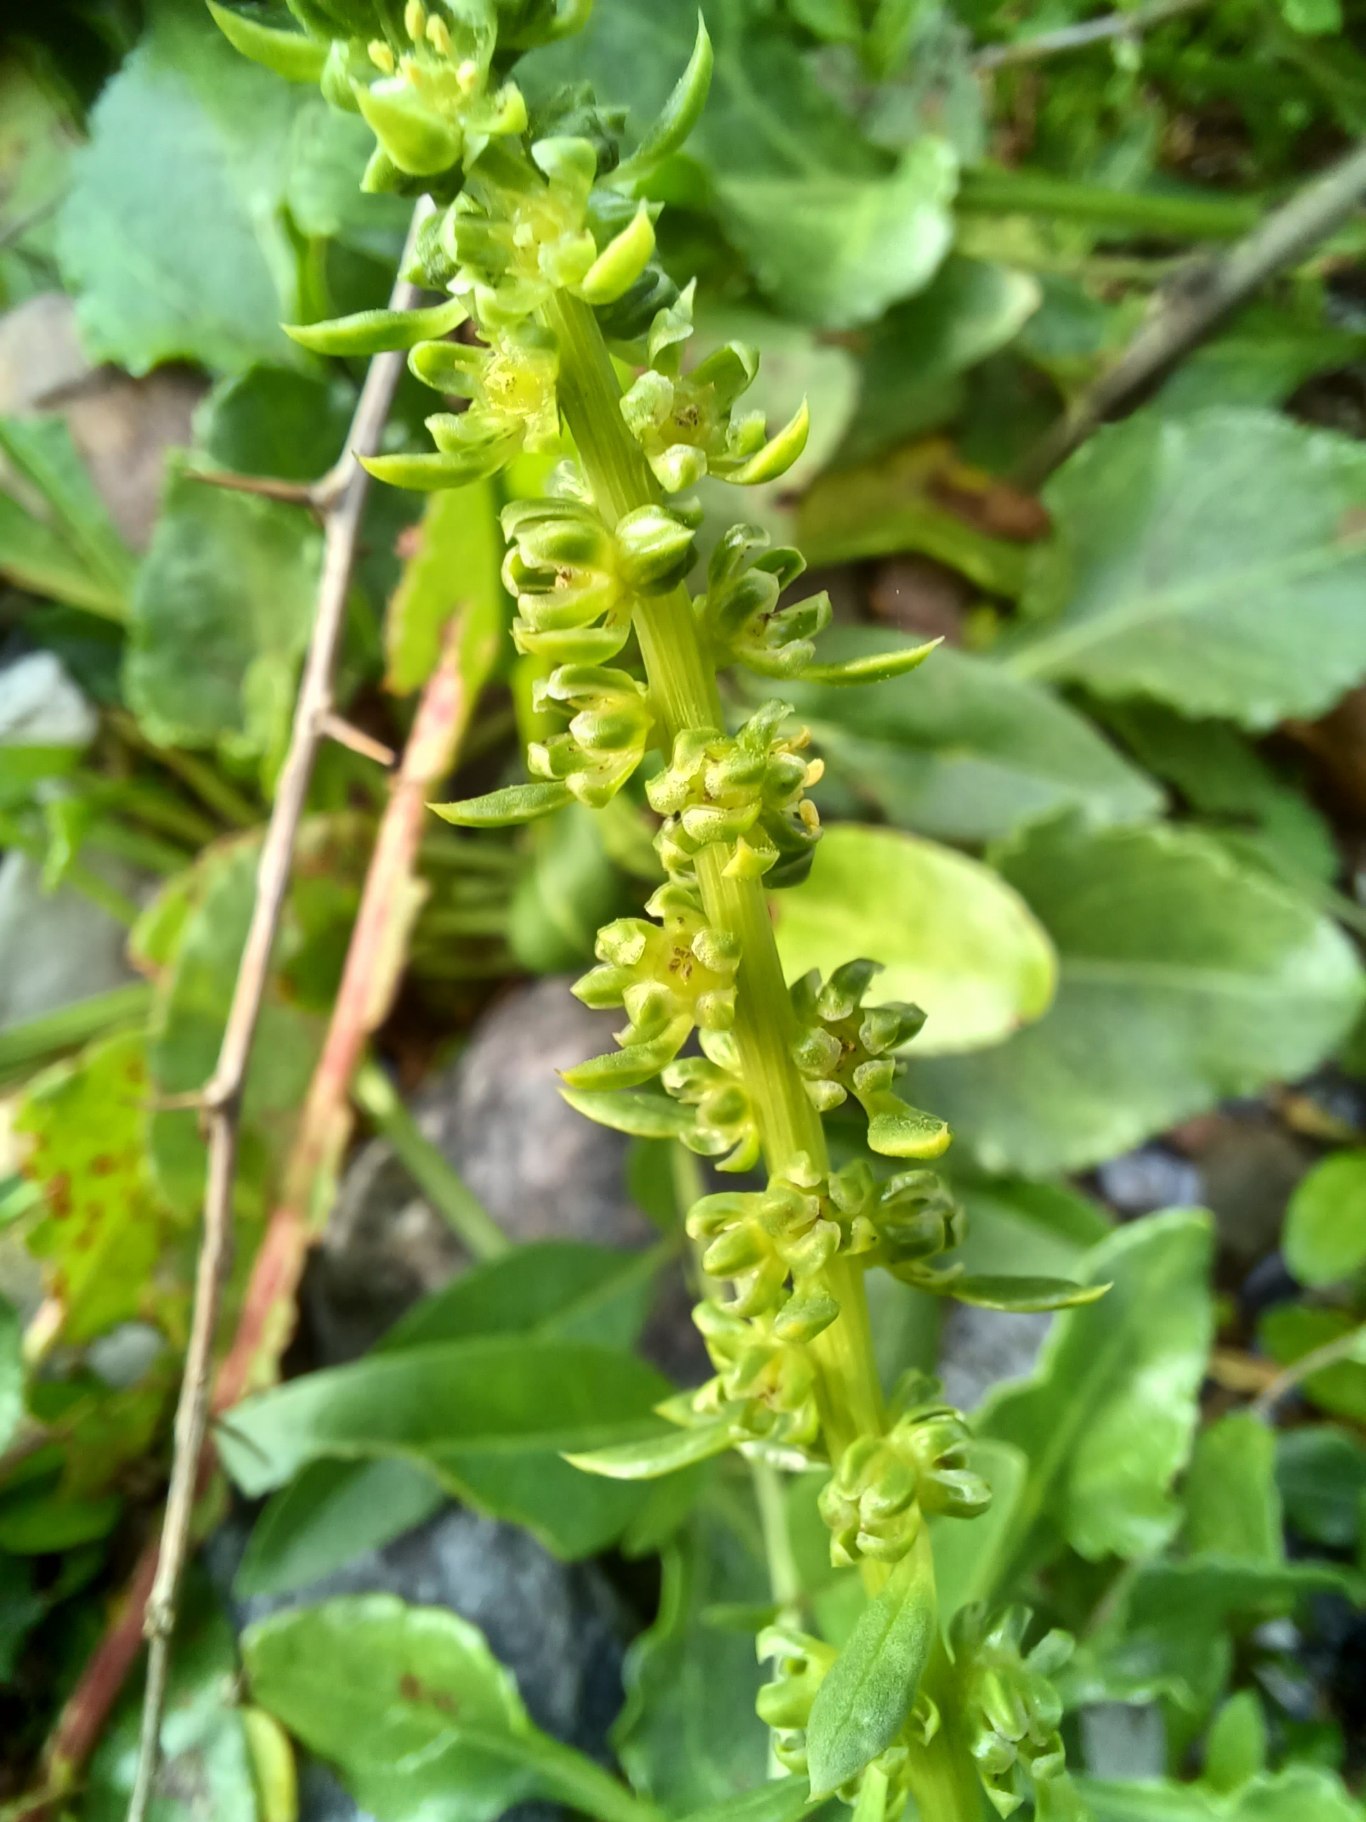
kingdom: Plantae
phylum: Tracheophyta
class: Magnoliopsida
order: Caryophyllales
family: Amaranthaceae
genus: Beta
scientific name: Beta maritima
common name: Strand-bede
